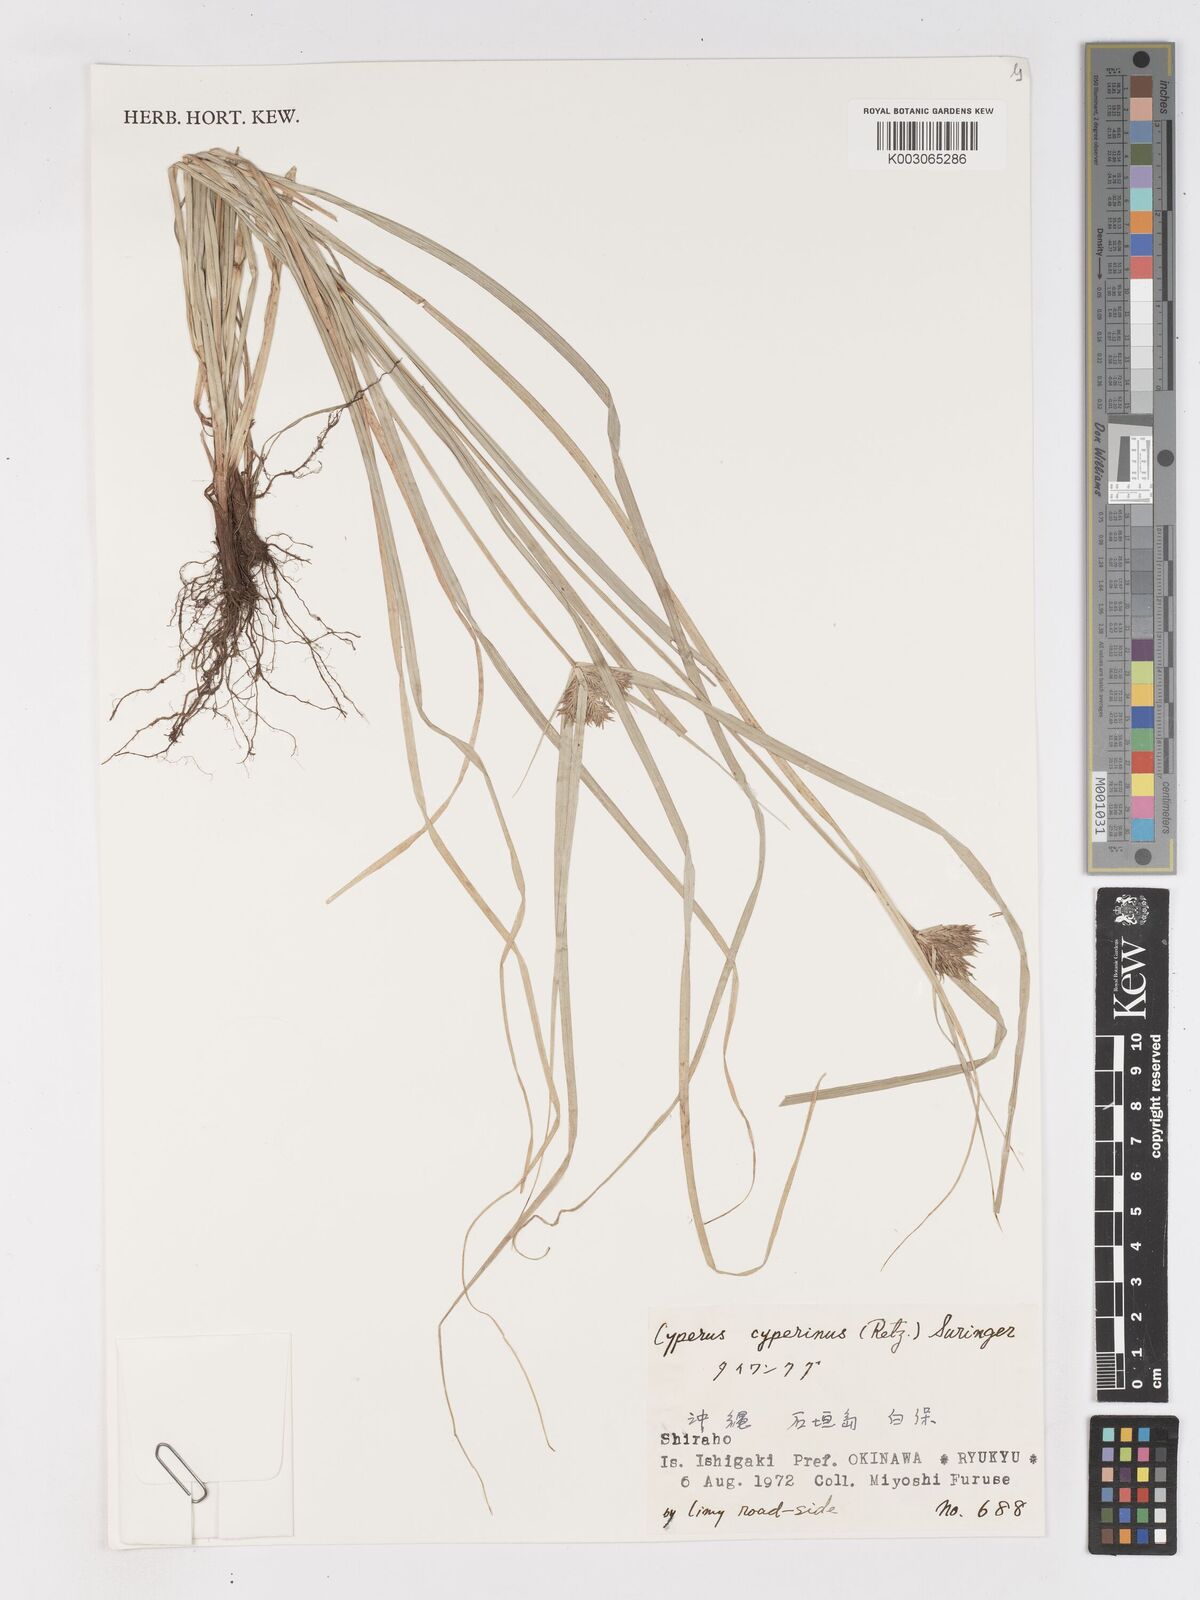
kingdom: Plantae
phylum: Tracheophyta
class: Liliopsida
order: Poales
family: Cyperaceae
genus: Cyperus
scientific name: Cyperus cyperinus
